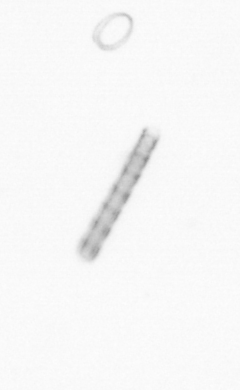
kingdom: Chromista
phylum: Ochrophyta
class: Bacillariophyceae
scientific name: Bacillariophyceae
